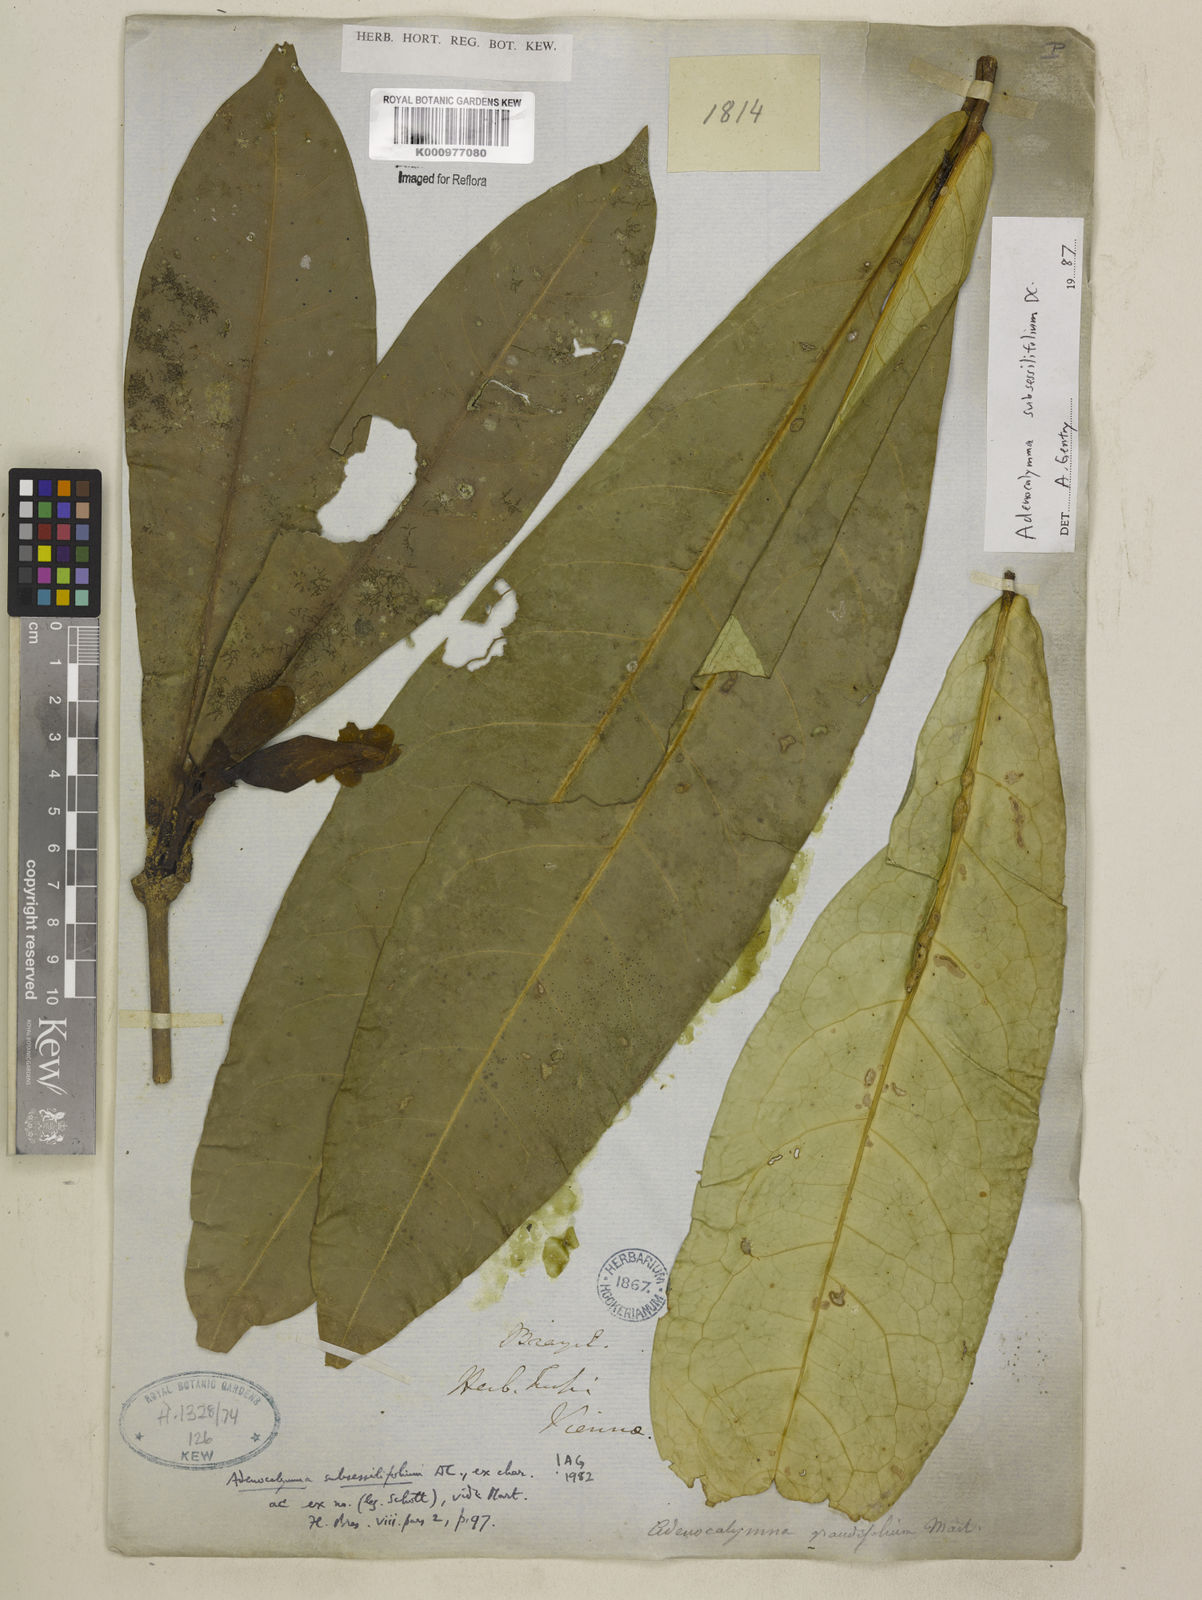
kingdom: Plantae
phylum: Tracheophyta
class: Magnoliopsida
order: Lamiales
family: Bignoniaceae
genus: Adenocalymma
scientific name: Adenocalymma subsessilifolium
